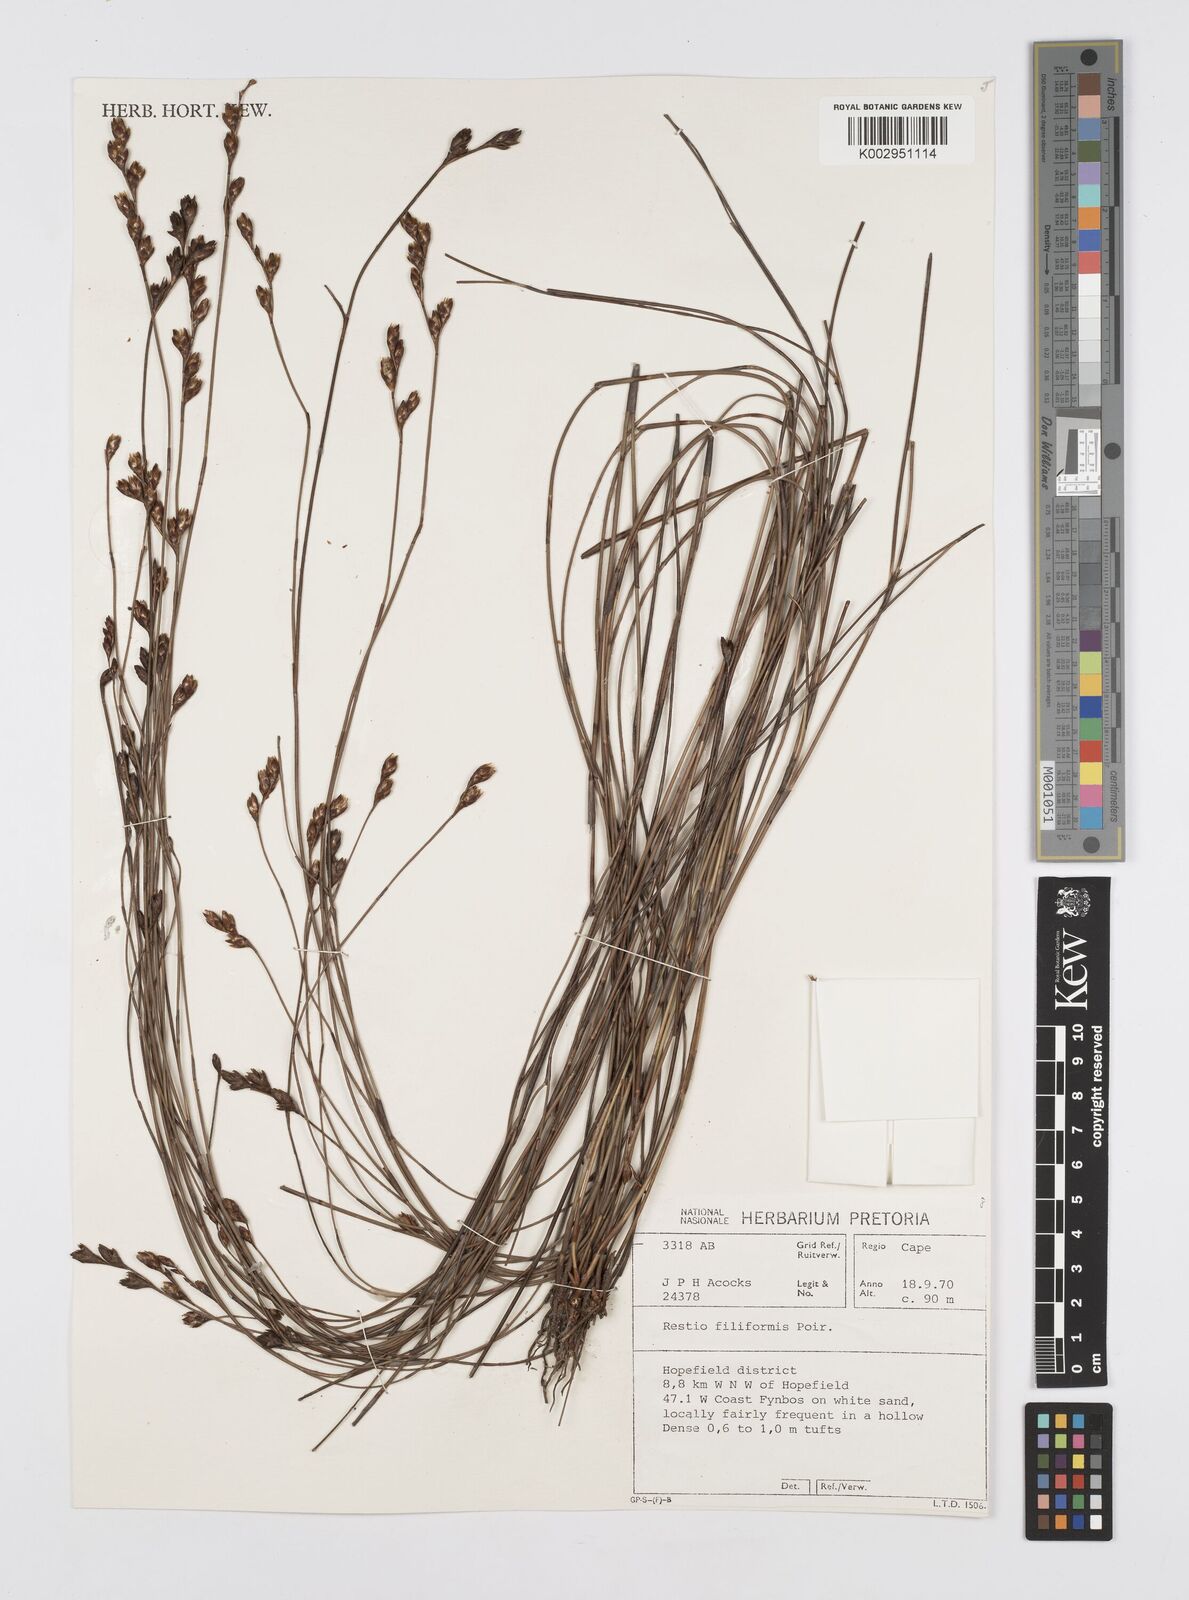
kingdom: Plantae
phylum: Tracheophyta
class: Liliopsida
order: Poales
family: Restionaceae
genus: Restio
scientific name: Restio filiformis
